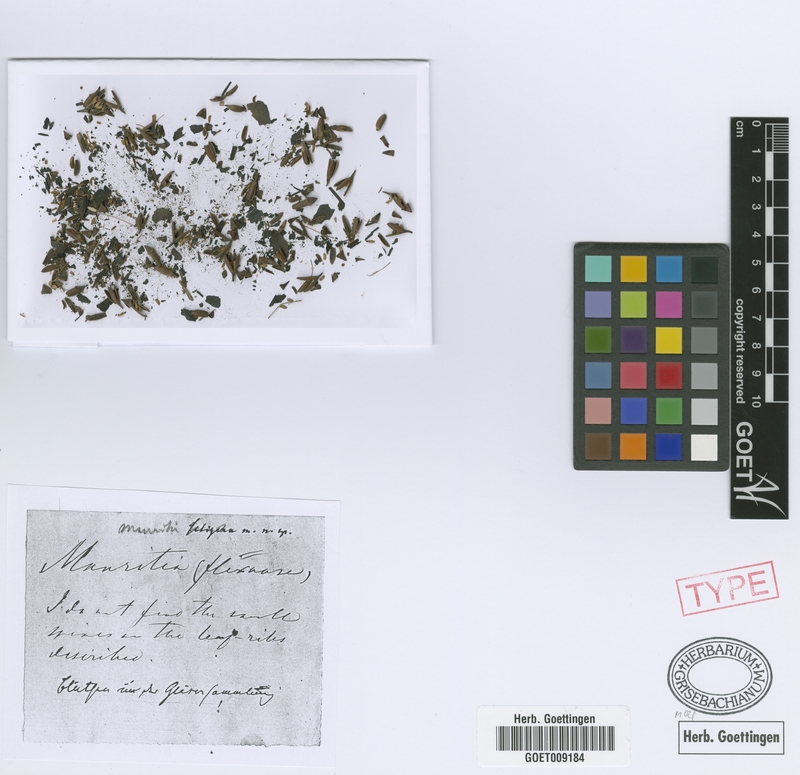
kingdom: Plantae
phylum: Tracheophyta
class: Liliopsida
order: Arecales
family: Arecaceae
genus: Mauritia
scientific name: Mauritia flexuosa
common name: Tree-of-life
